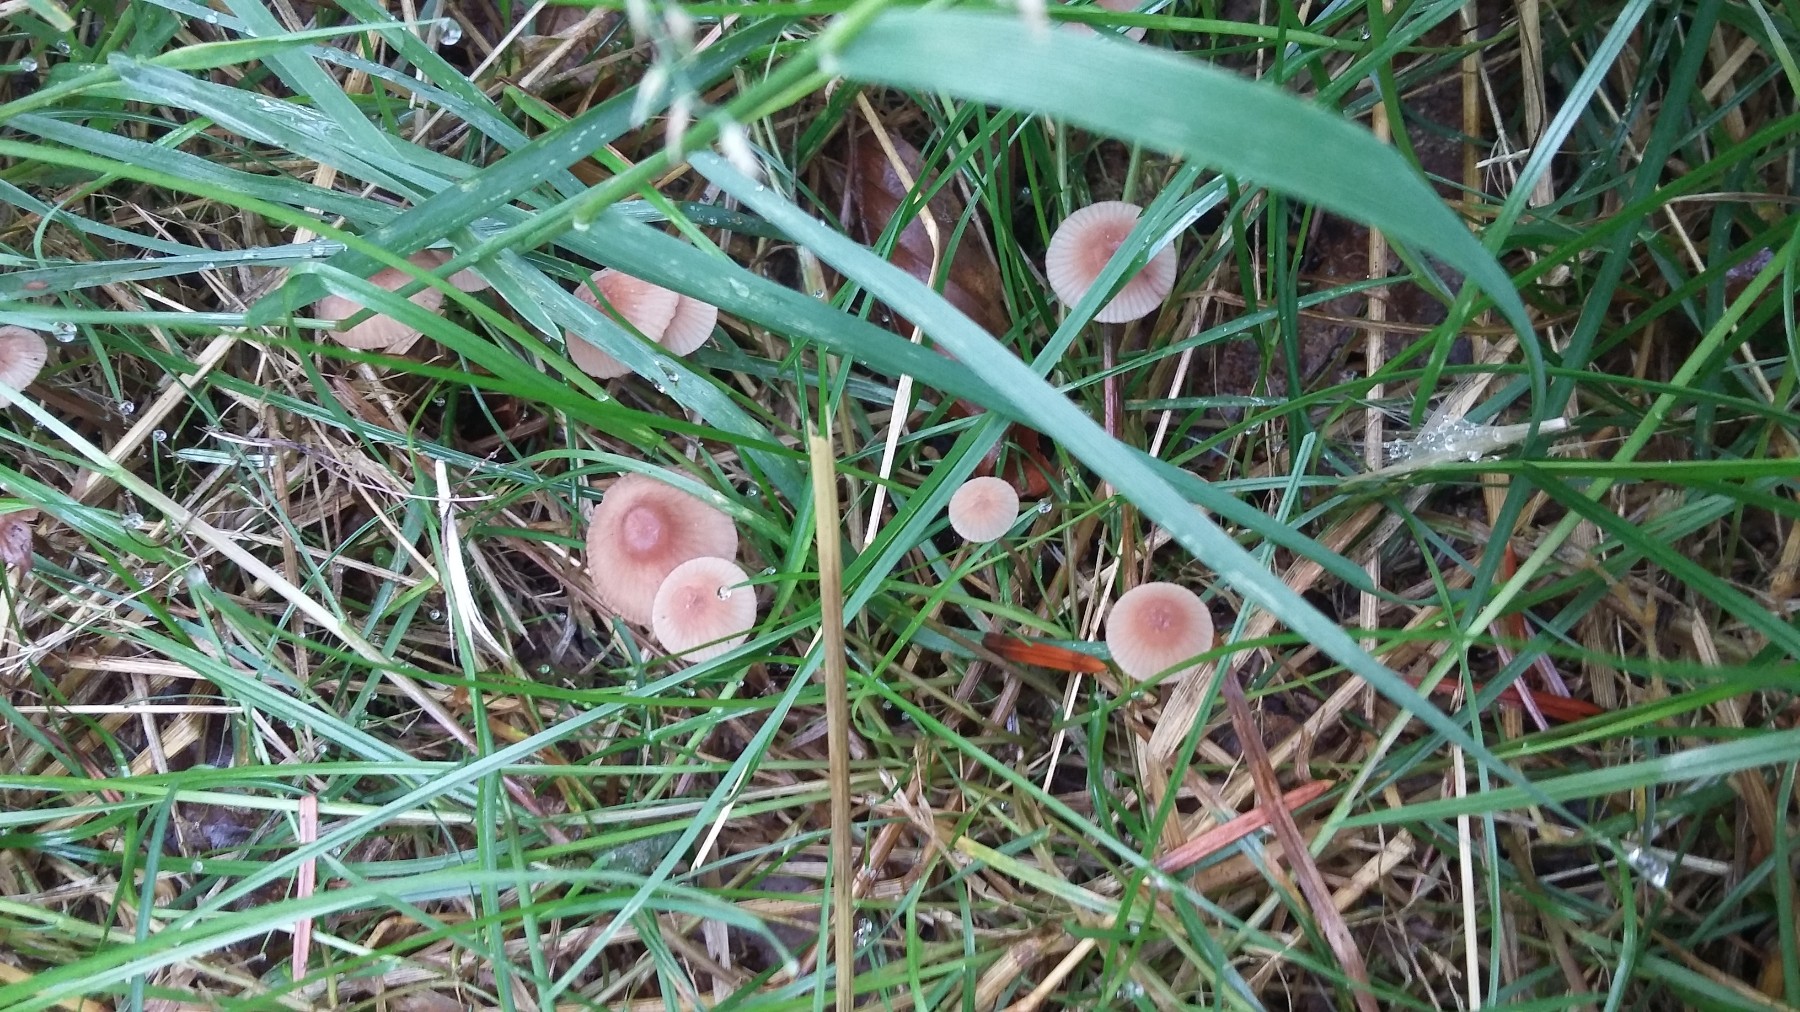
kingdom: Fungi
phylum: Basidiomycota
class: Agaricomycetes
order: Agaricales
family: Mycenaceae
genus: Mycena
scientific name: Mycena sanguinolenta
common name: rødmælket huesvamp
